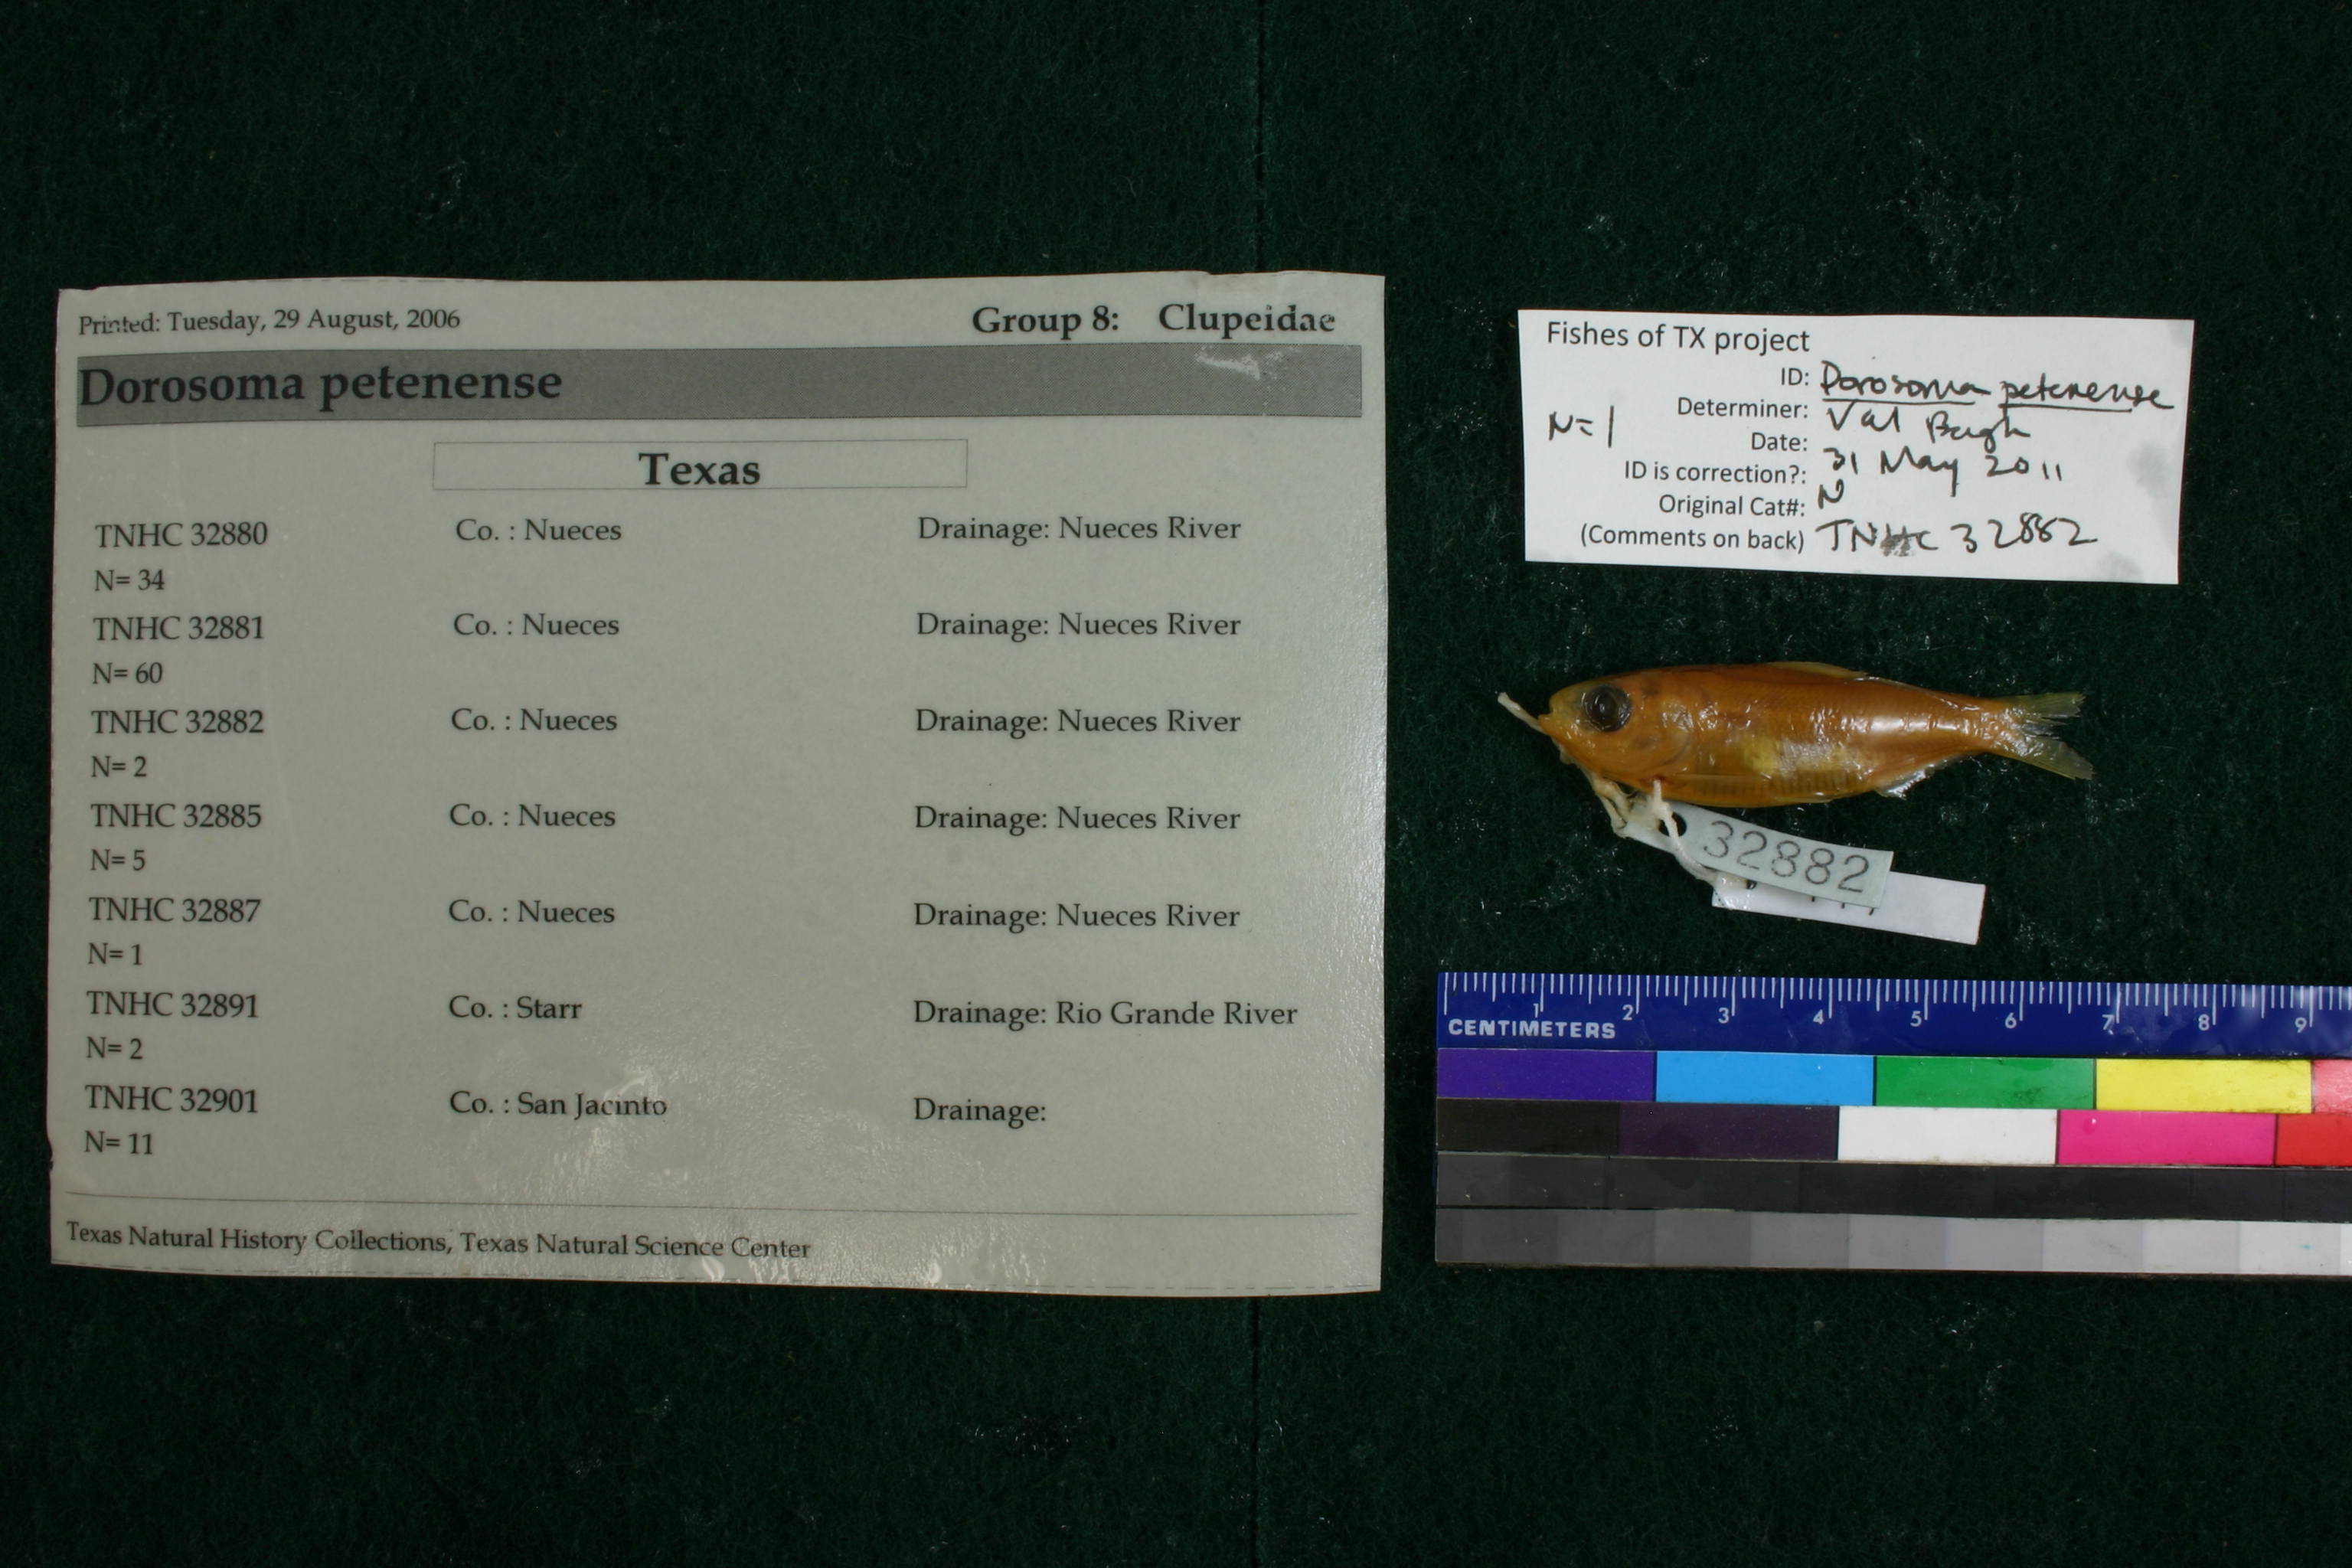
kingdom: Animalia
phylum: Chordata
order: Clupeiformes
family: Clupeidae
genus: Dorosoma
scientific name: Dorosoma petenense
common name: Threadfin shad
